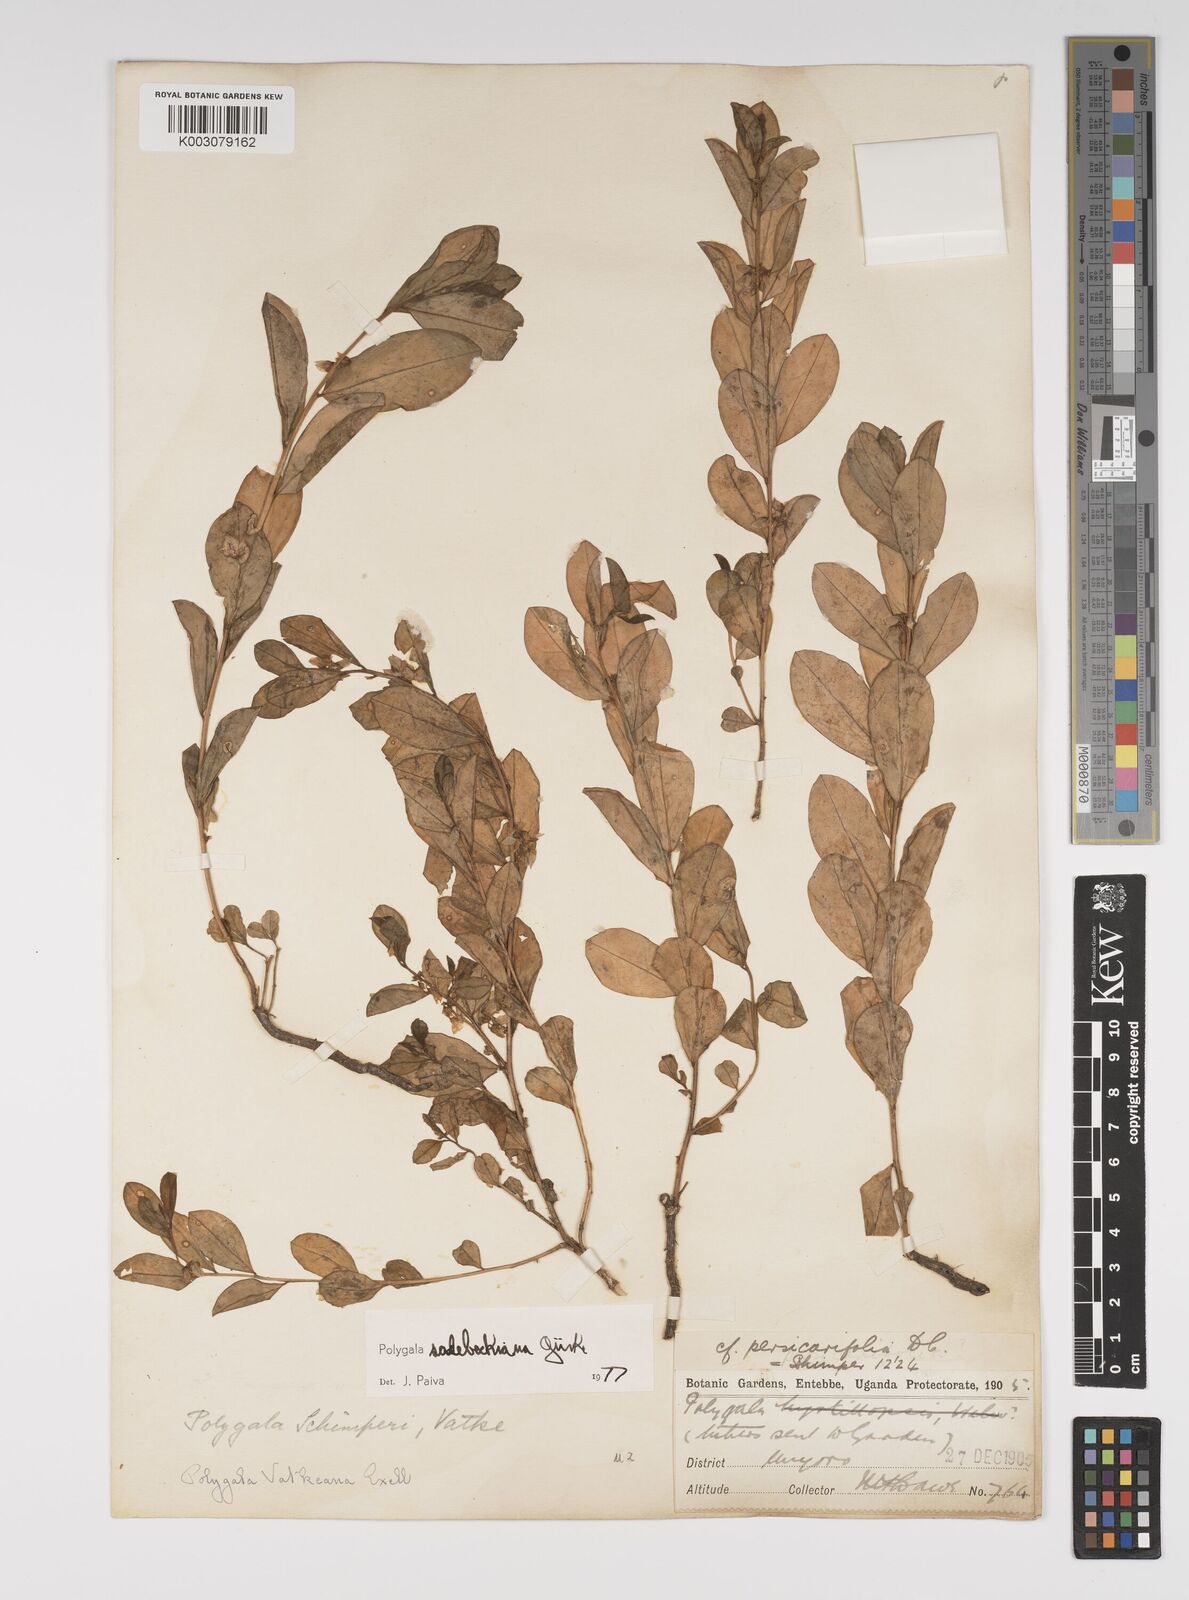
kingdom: Plantae
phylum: Tracheophyta
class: Magnoliopsida
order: Fabales
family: Polygalaceae
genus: Polygala
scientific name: Polygala sadebeckiana
